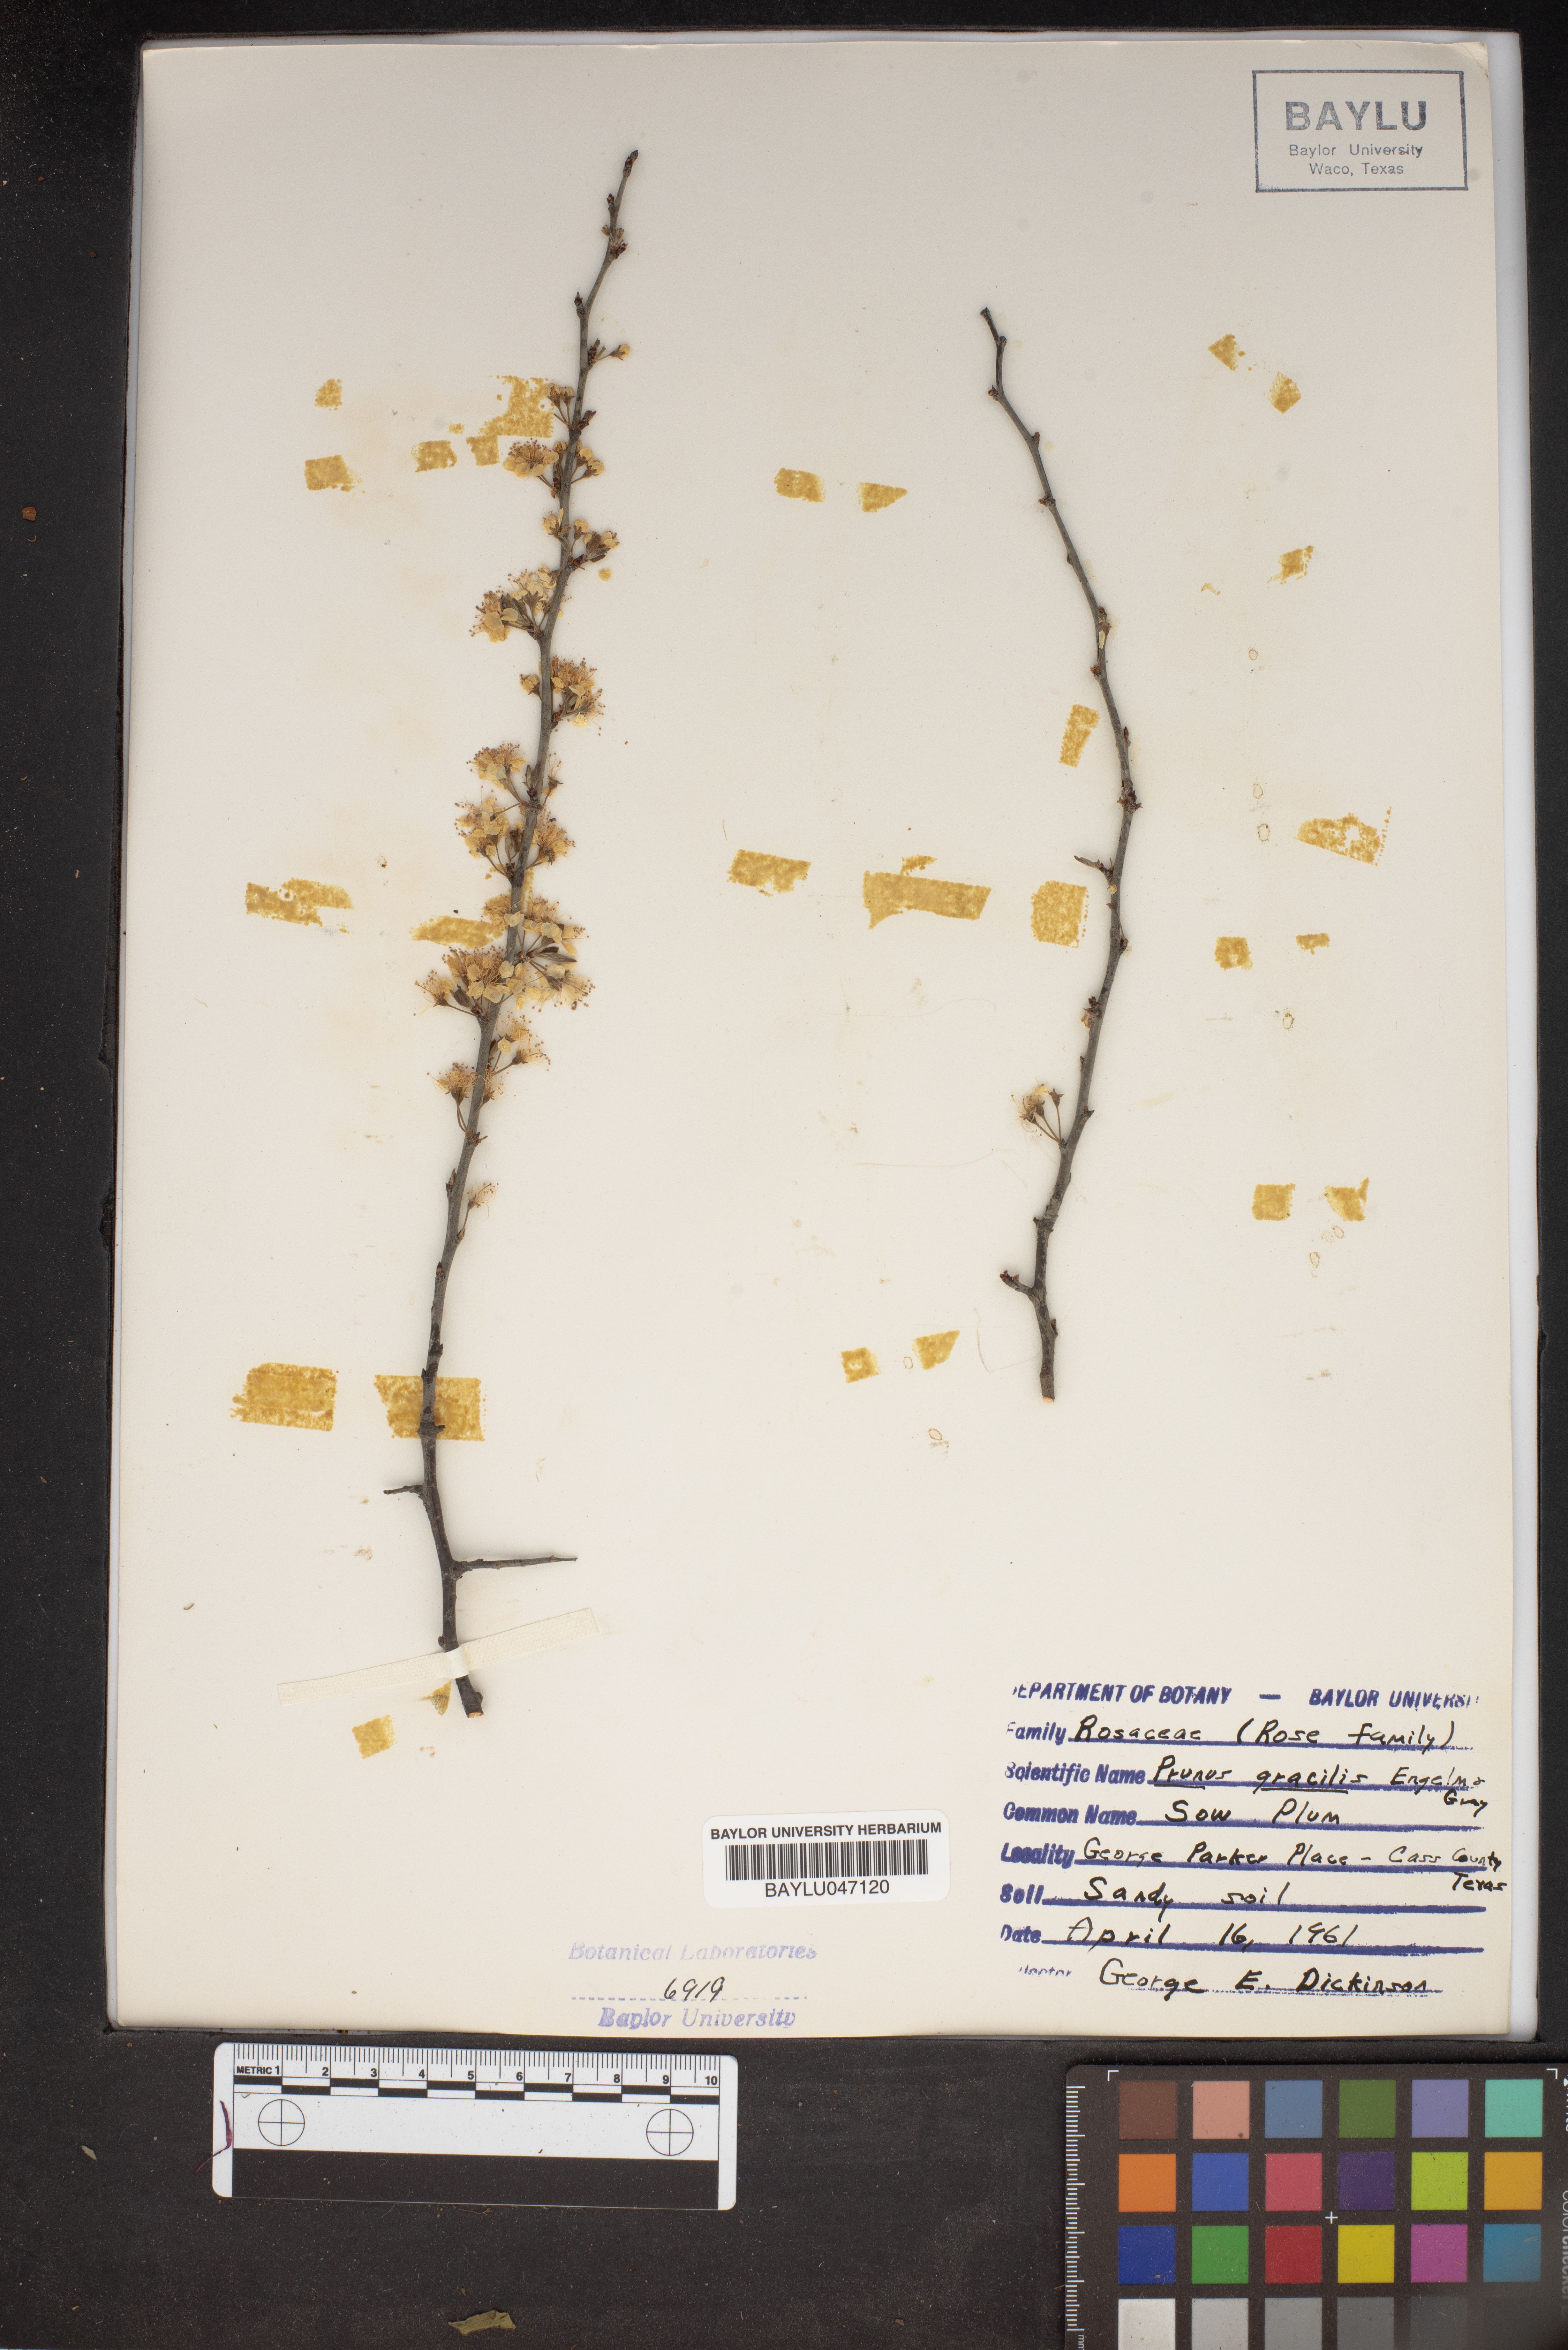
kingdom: Plantae
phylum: Tracheophyta
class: Magnoliopsida
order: Rosales
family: Rosaceae
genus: Prunus
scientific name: Prunus gracilis
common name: Oklahoma plum
